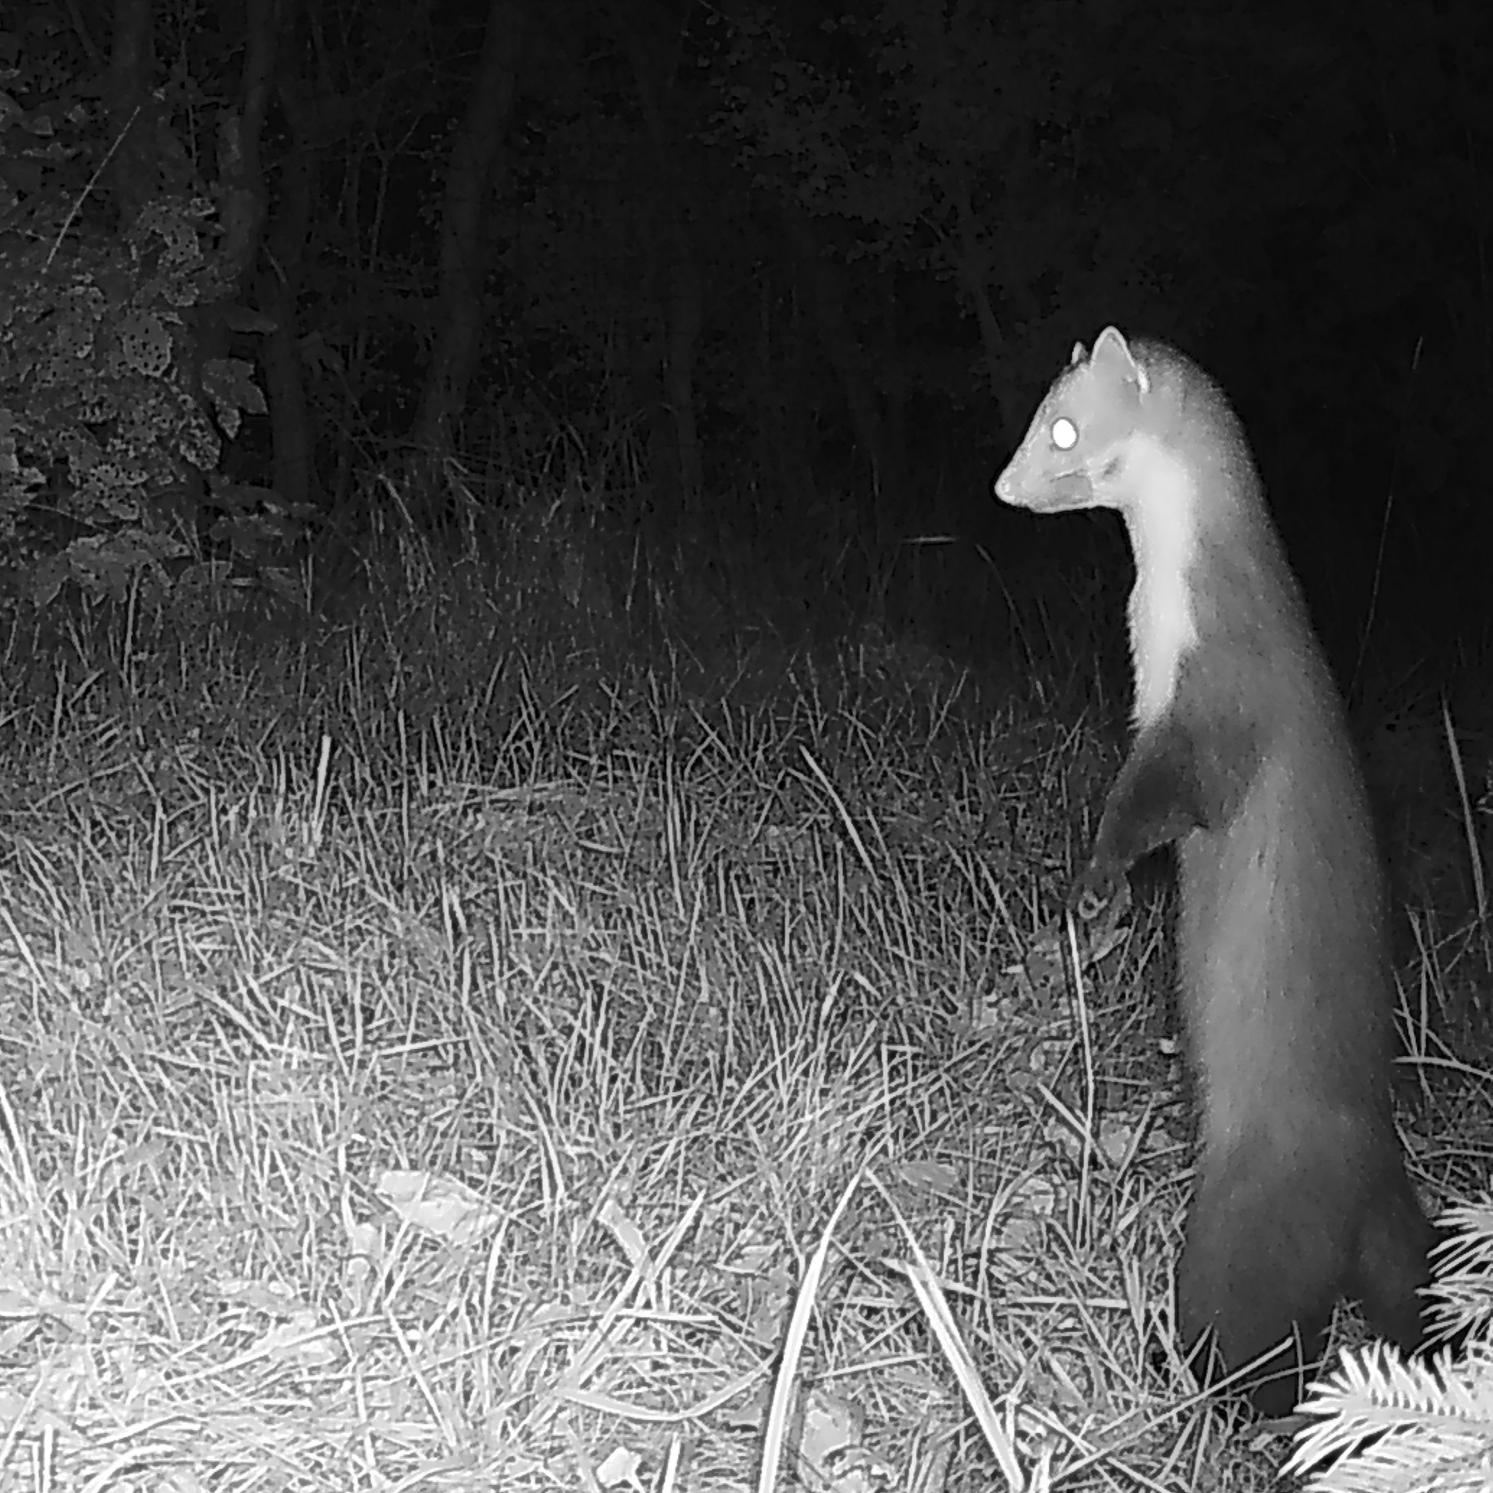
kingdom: Animalia
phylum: Chordata
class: Mammalia
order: Carnivora
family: Mustelidae
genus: Martes
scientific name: Martes foina
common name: Husmår
